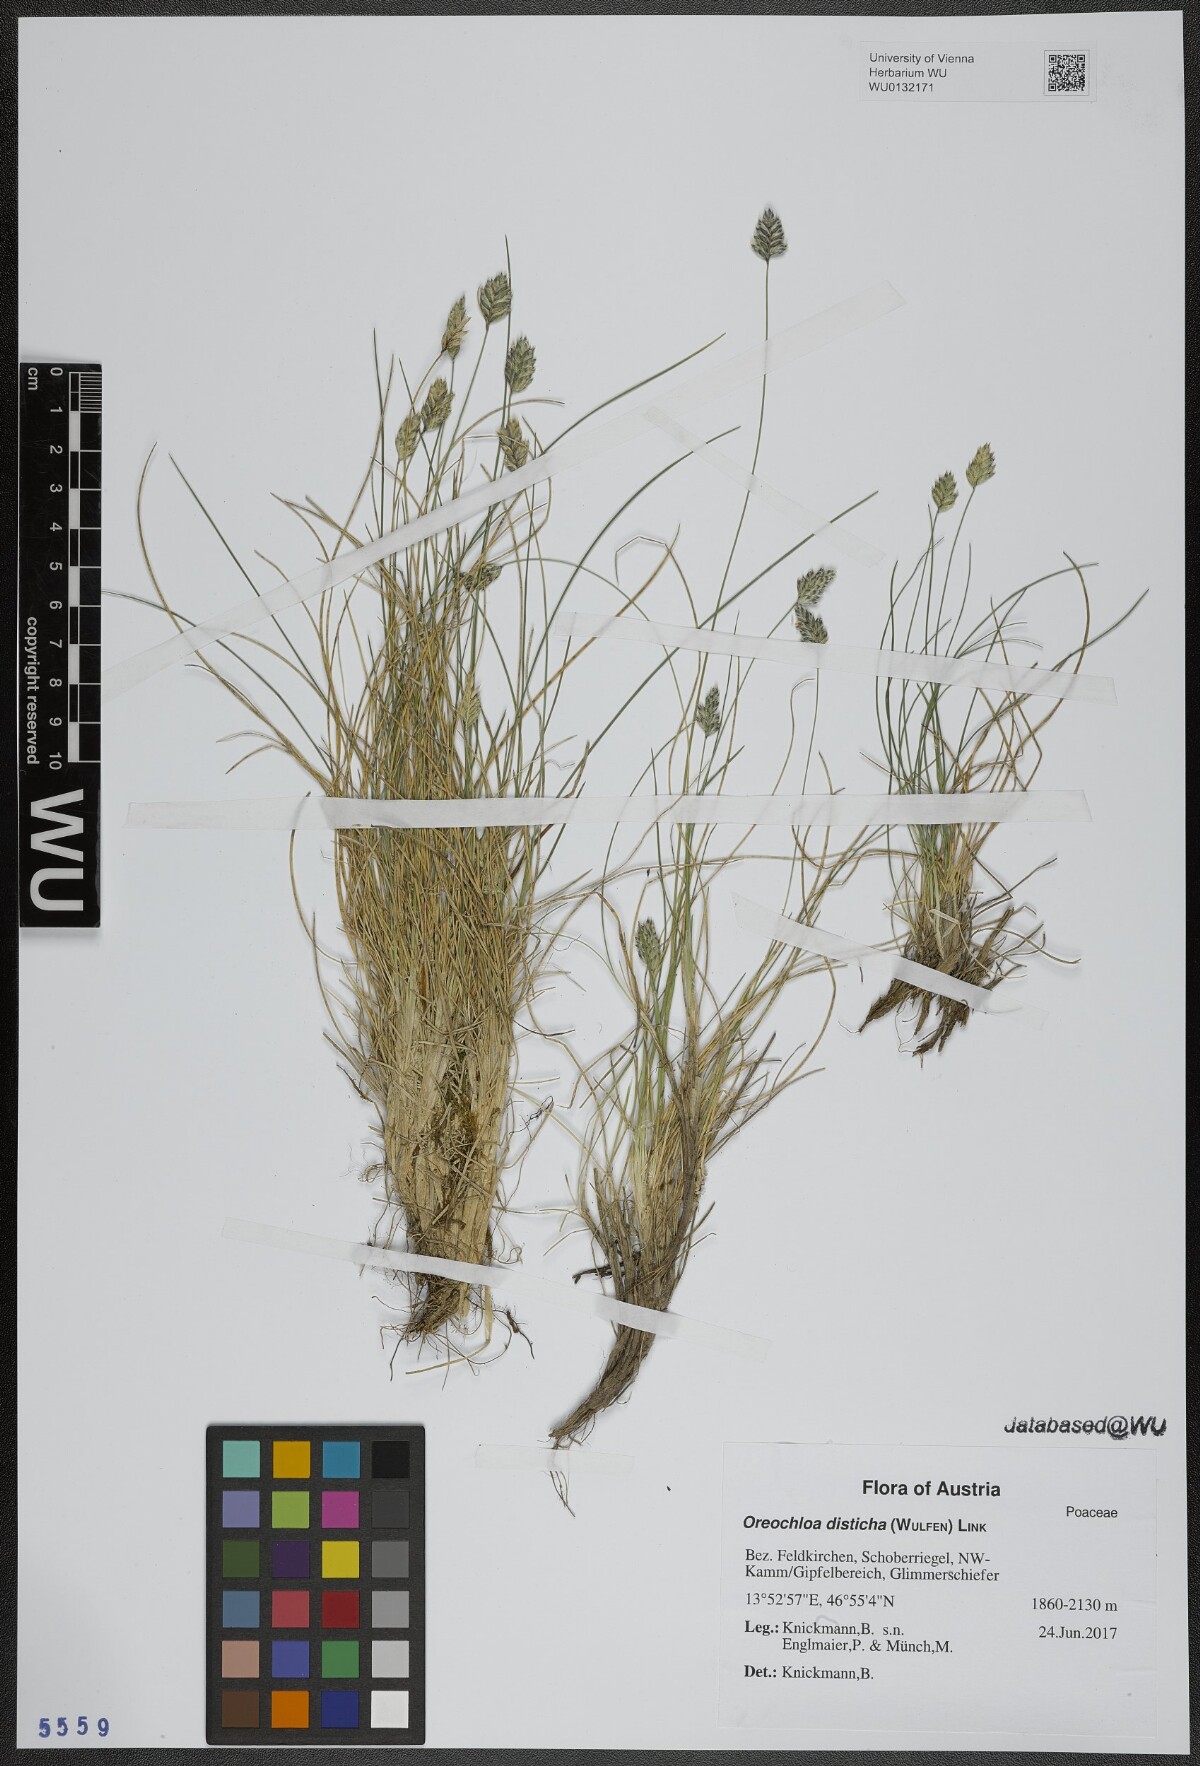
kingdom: Plantae
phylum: Tracheophyta
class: Liliopsida
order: Poales
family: Poaceae
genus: Oreochloa
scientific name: Oreochloa disticha
